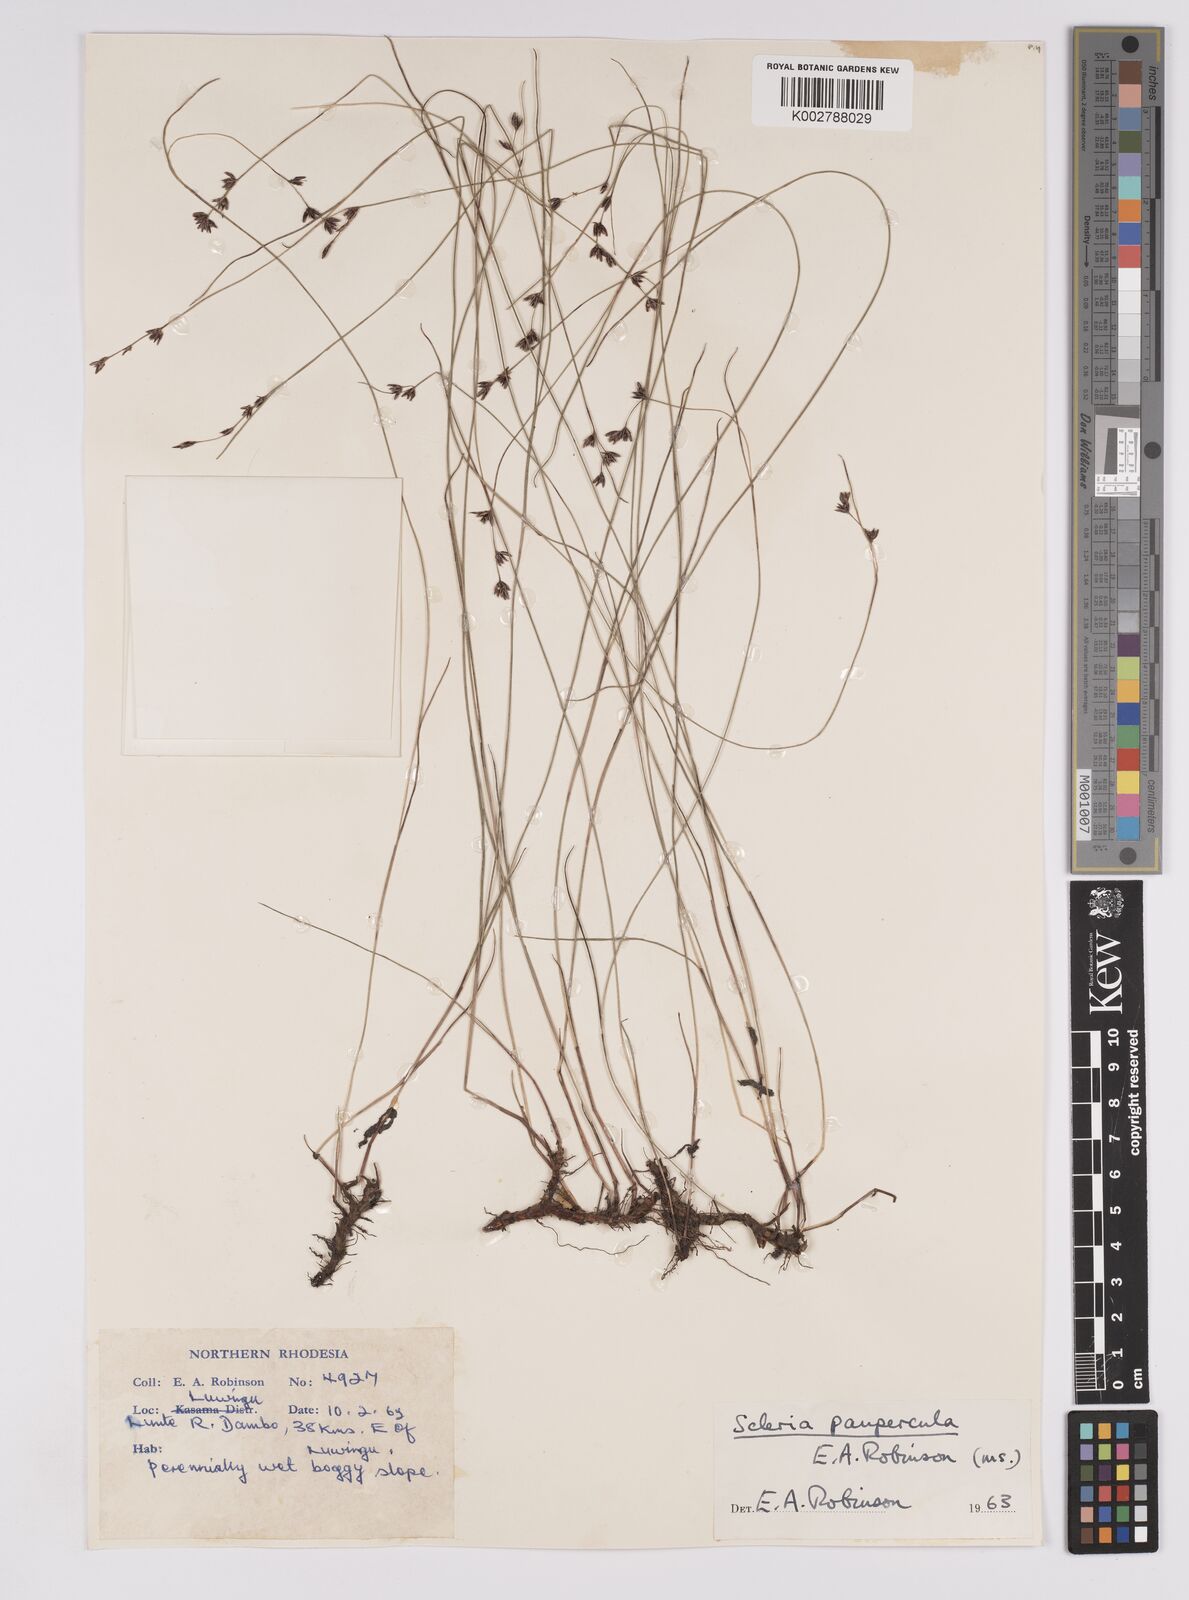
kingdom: Plantae
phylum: Tracheophyta
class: Liliopsida
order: Poales
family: Cyperaceae
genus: Scleria
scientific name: Scleria paupercula
